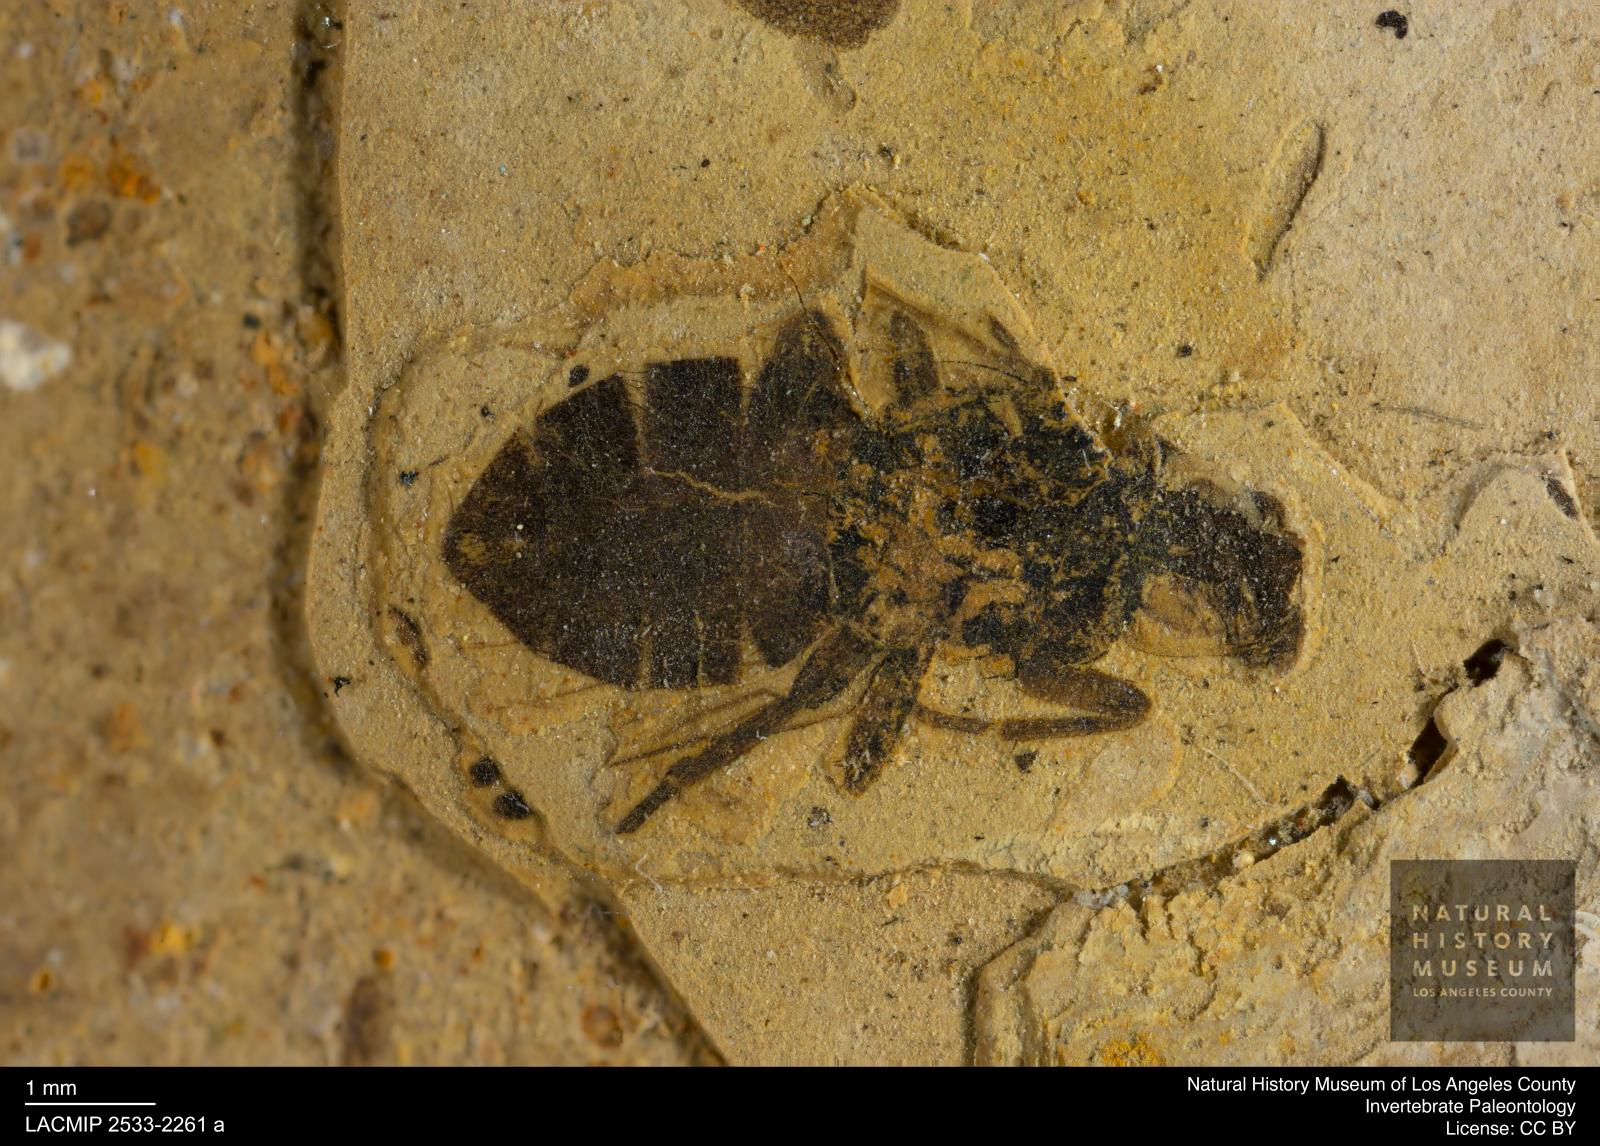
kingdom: Animalia
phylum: Arthropoda
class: Insecta
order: Diptera
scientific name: Diptera
